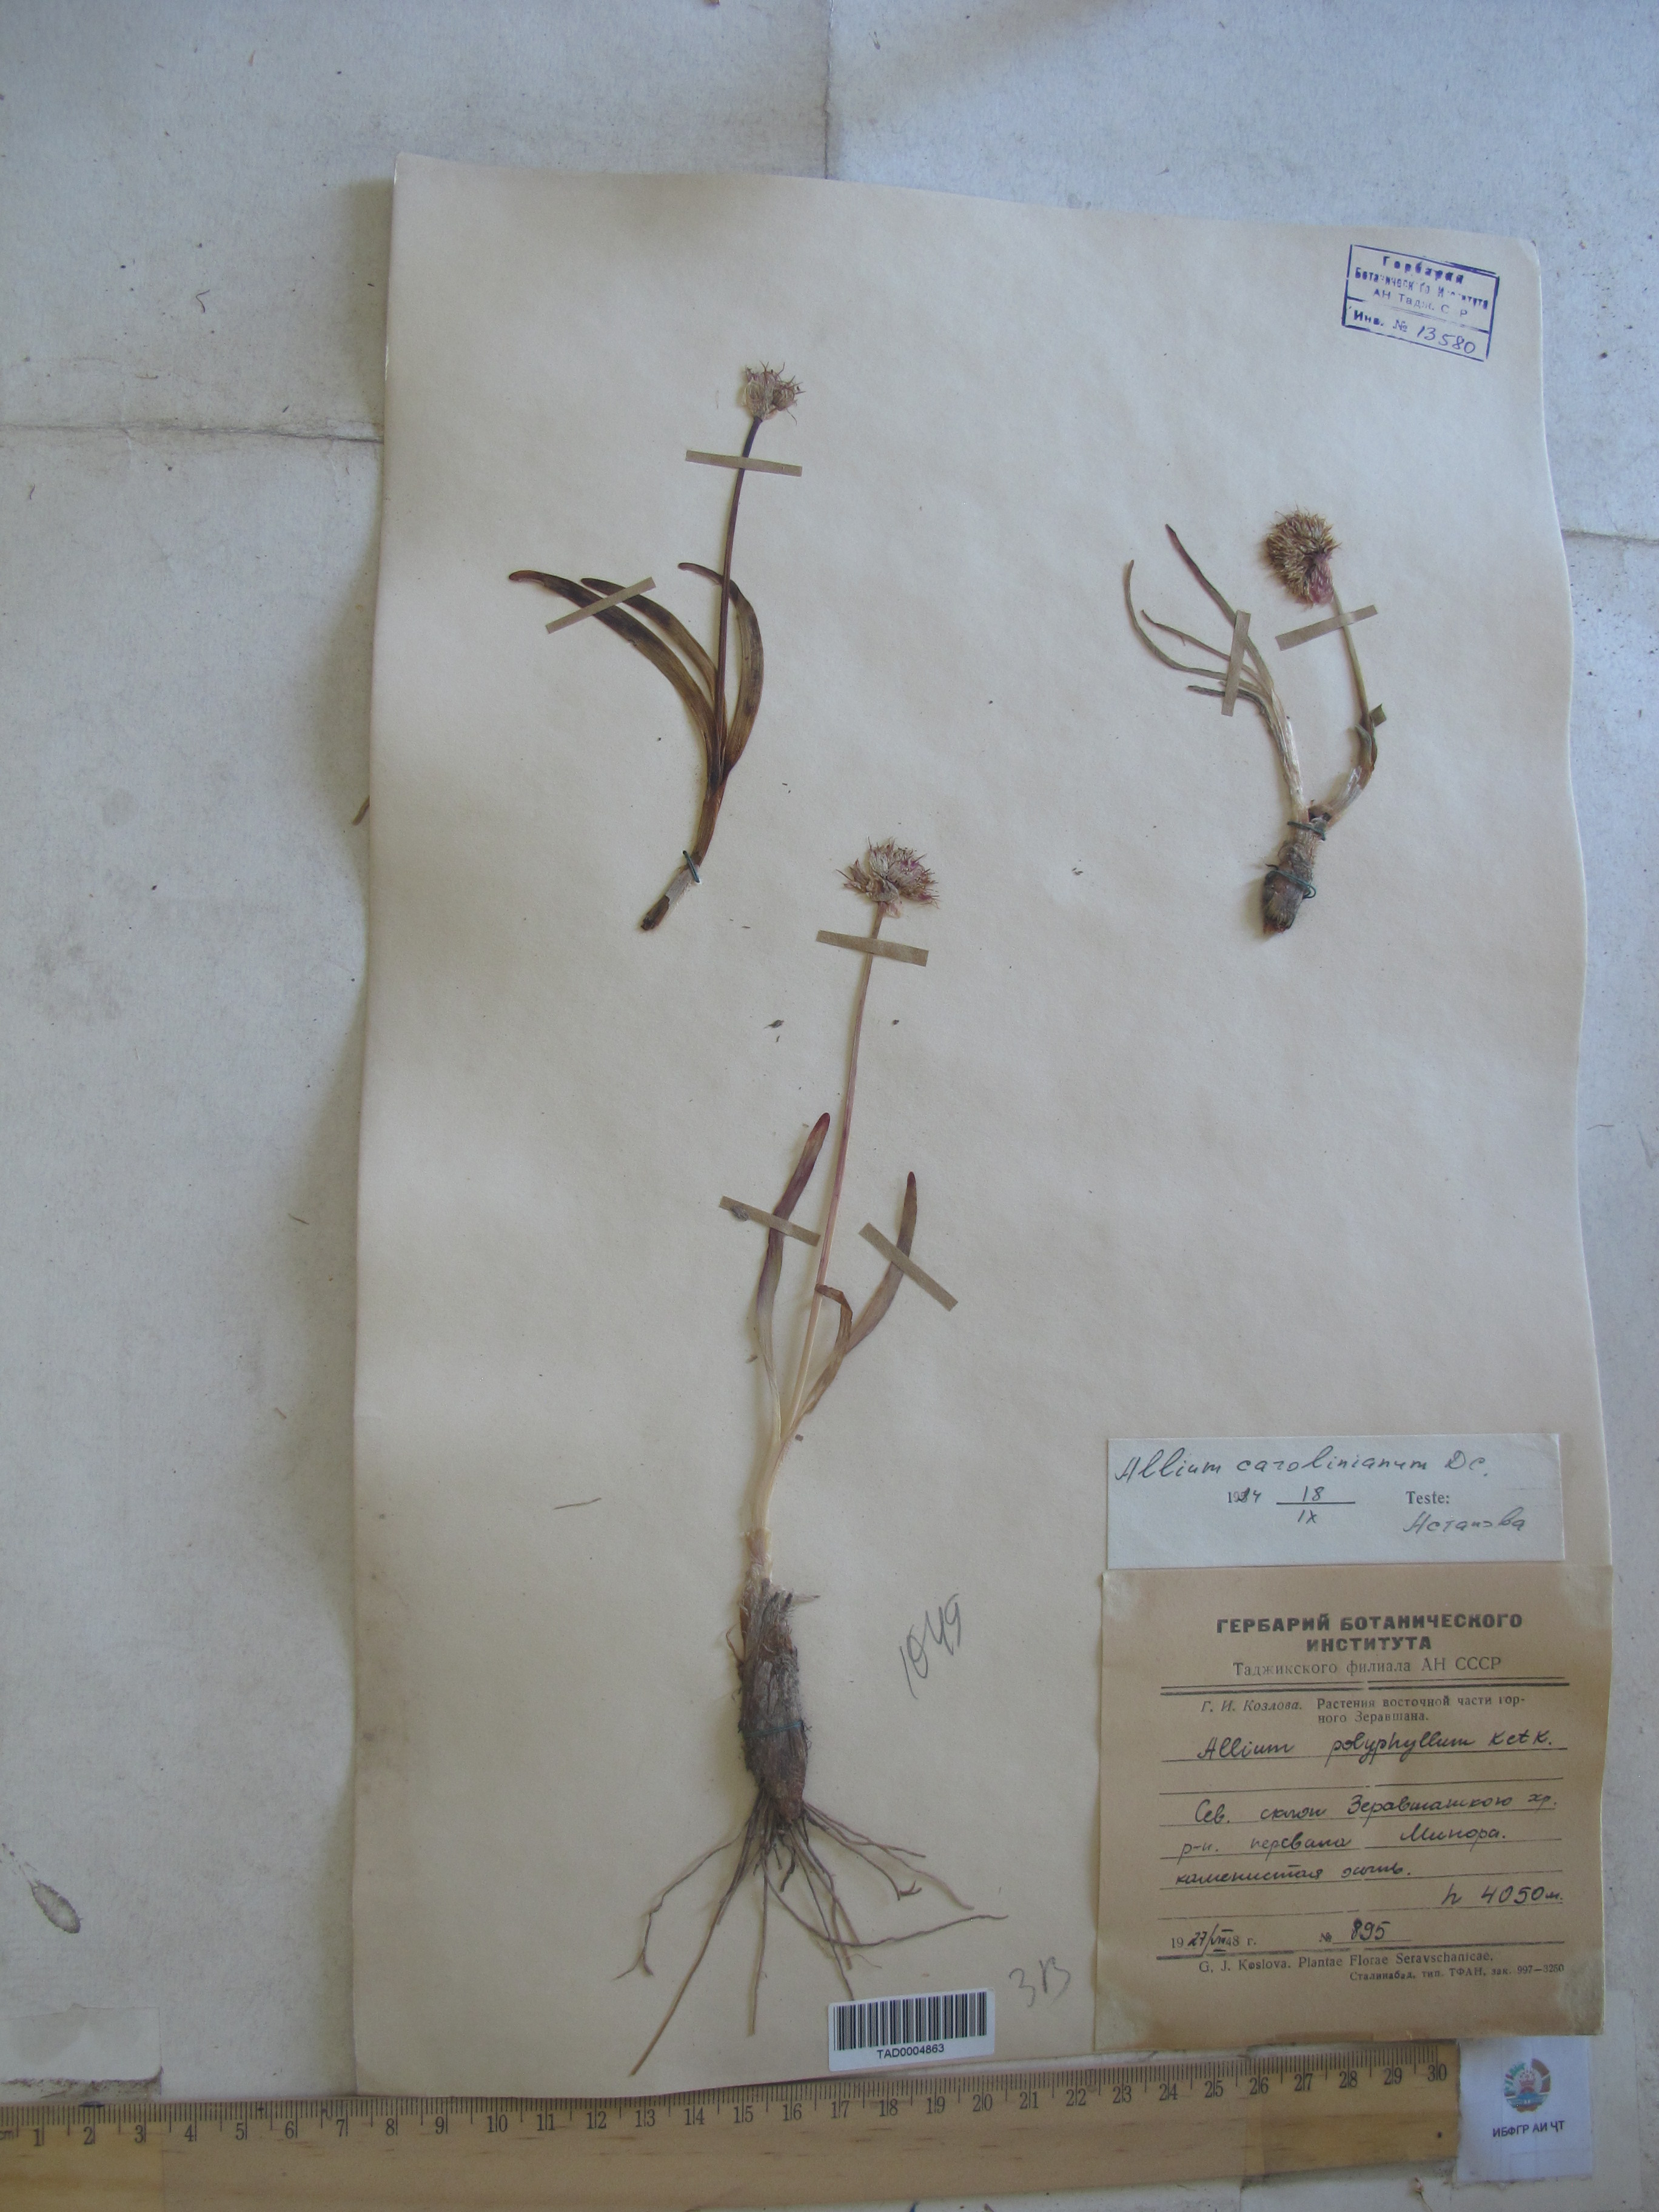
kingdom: Plantae
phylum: Tracheophyta
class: Liliopsida
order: Asparagales
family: Amaryllidaceae
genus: Allium
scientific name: Allium carolinianum
